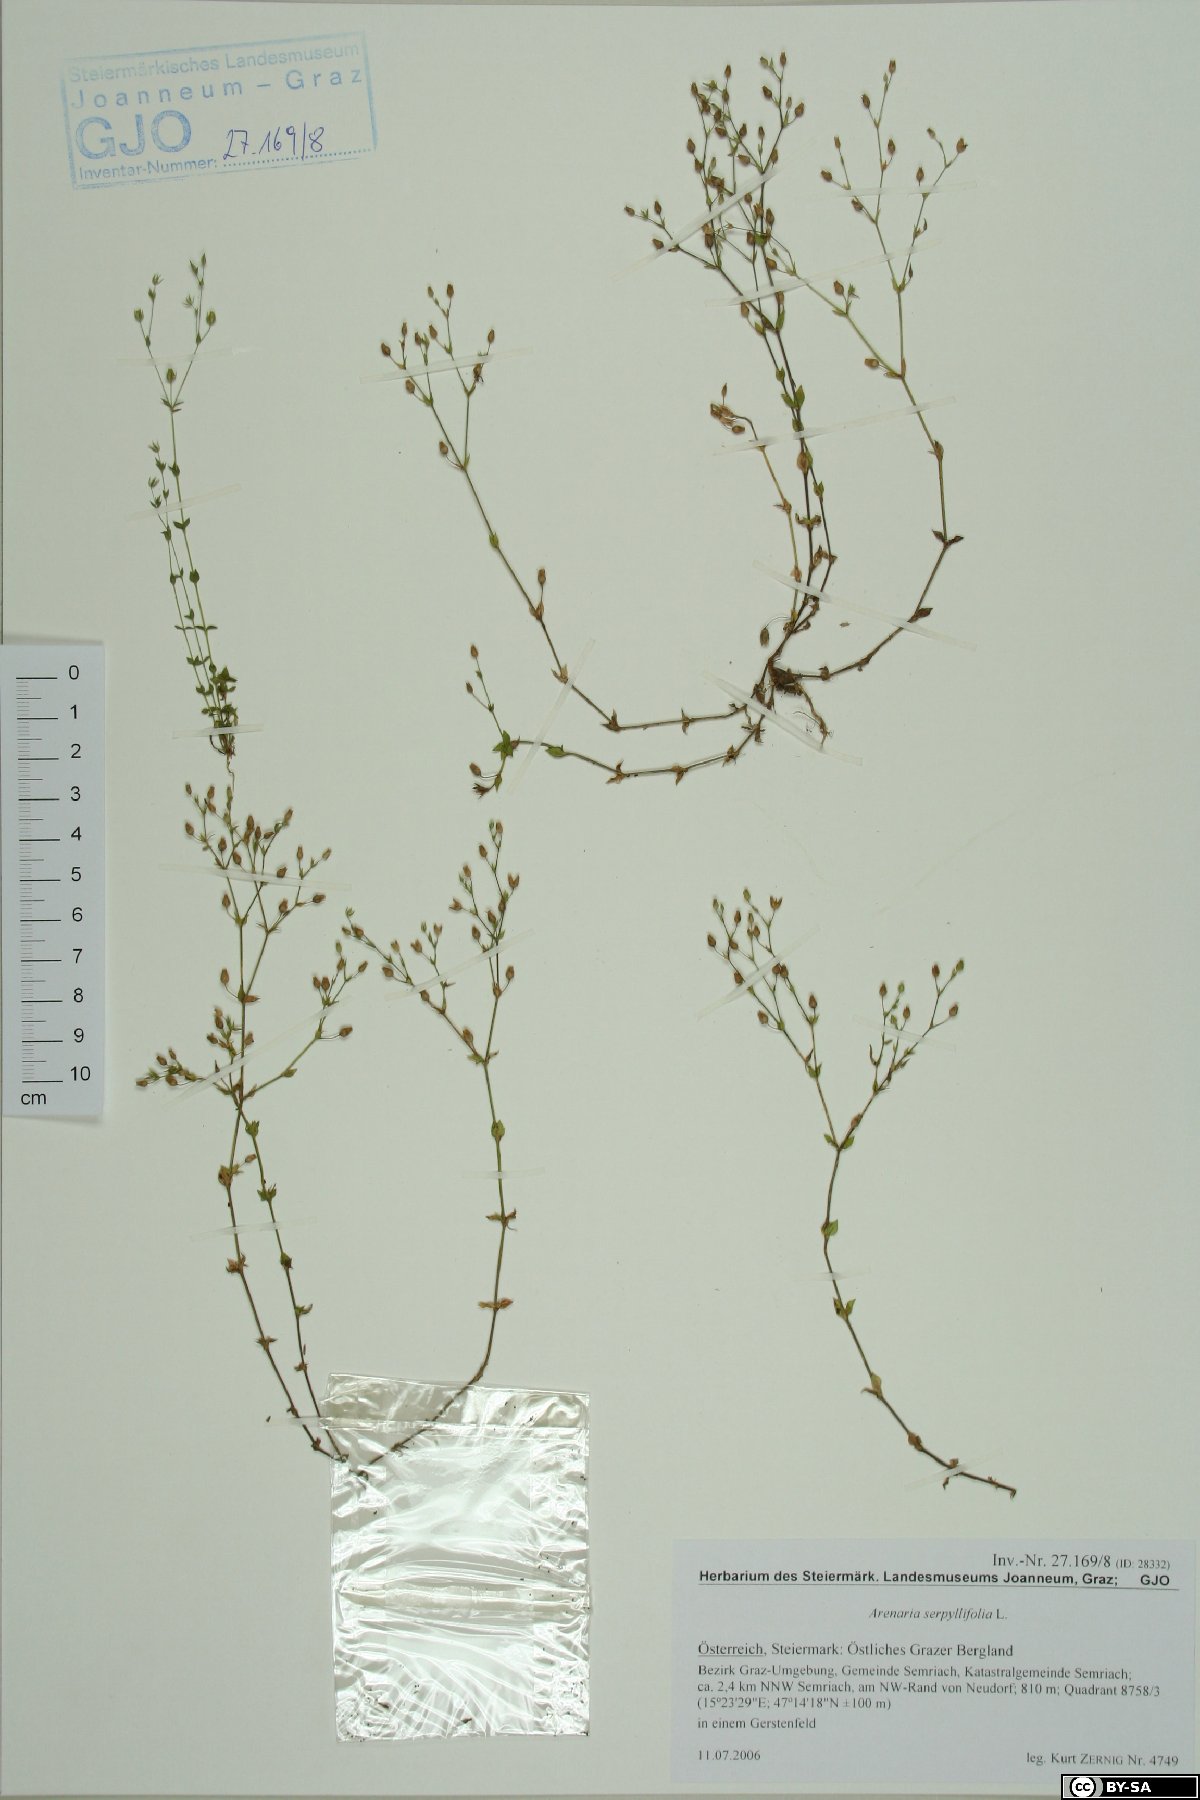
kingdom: Plantae
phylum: Tracheophyta
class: Magnoliopsida
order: Caryophyllales
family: Caryophyllaceae
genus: Arenaria
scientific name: Arenaria serpyllifolia
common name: Thyme-leaved sandwort
